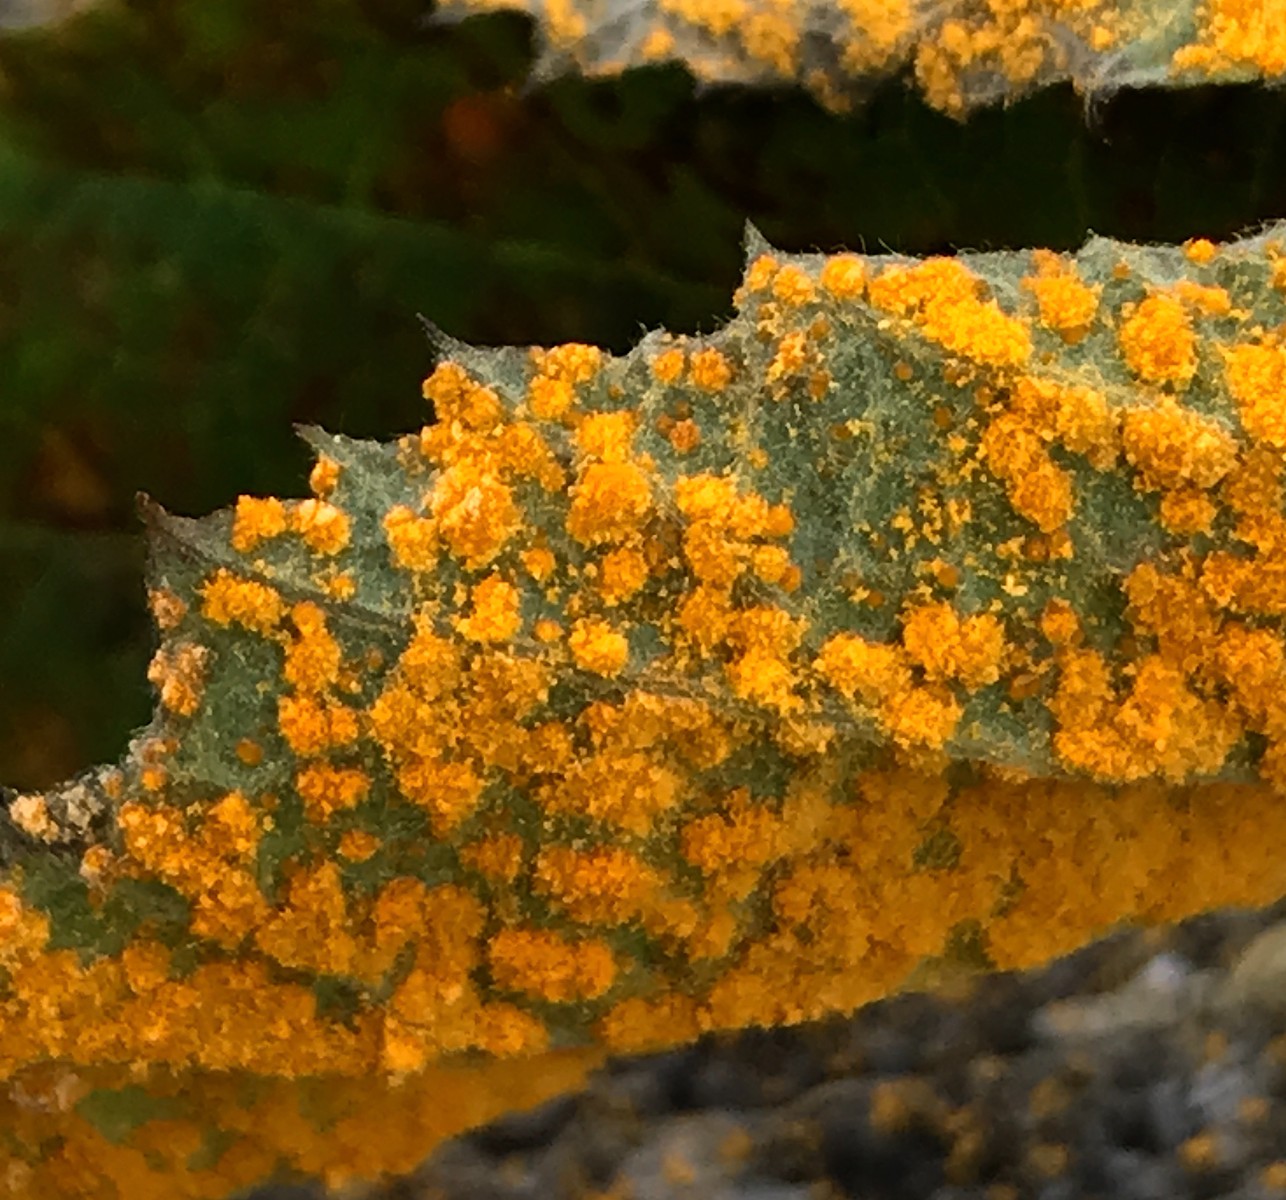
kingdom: Fungi
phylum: Basidiomycota
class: Pucciniomycetes
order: Pucciniales
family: Phragmidiaceae
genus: Phragmidium
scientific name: Phragmidium violaceum
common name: violet flercellerust
